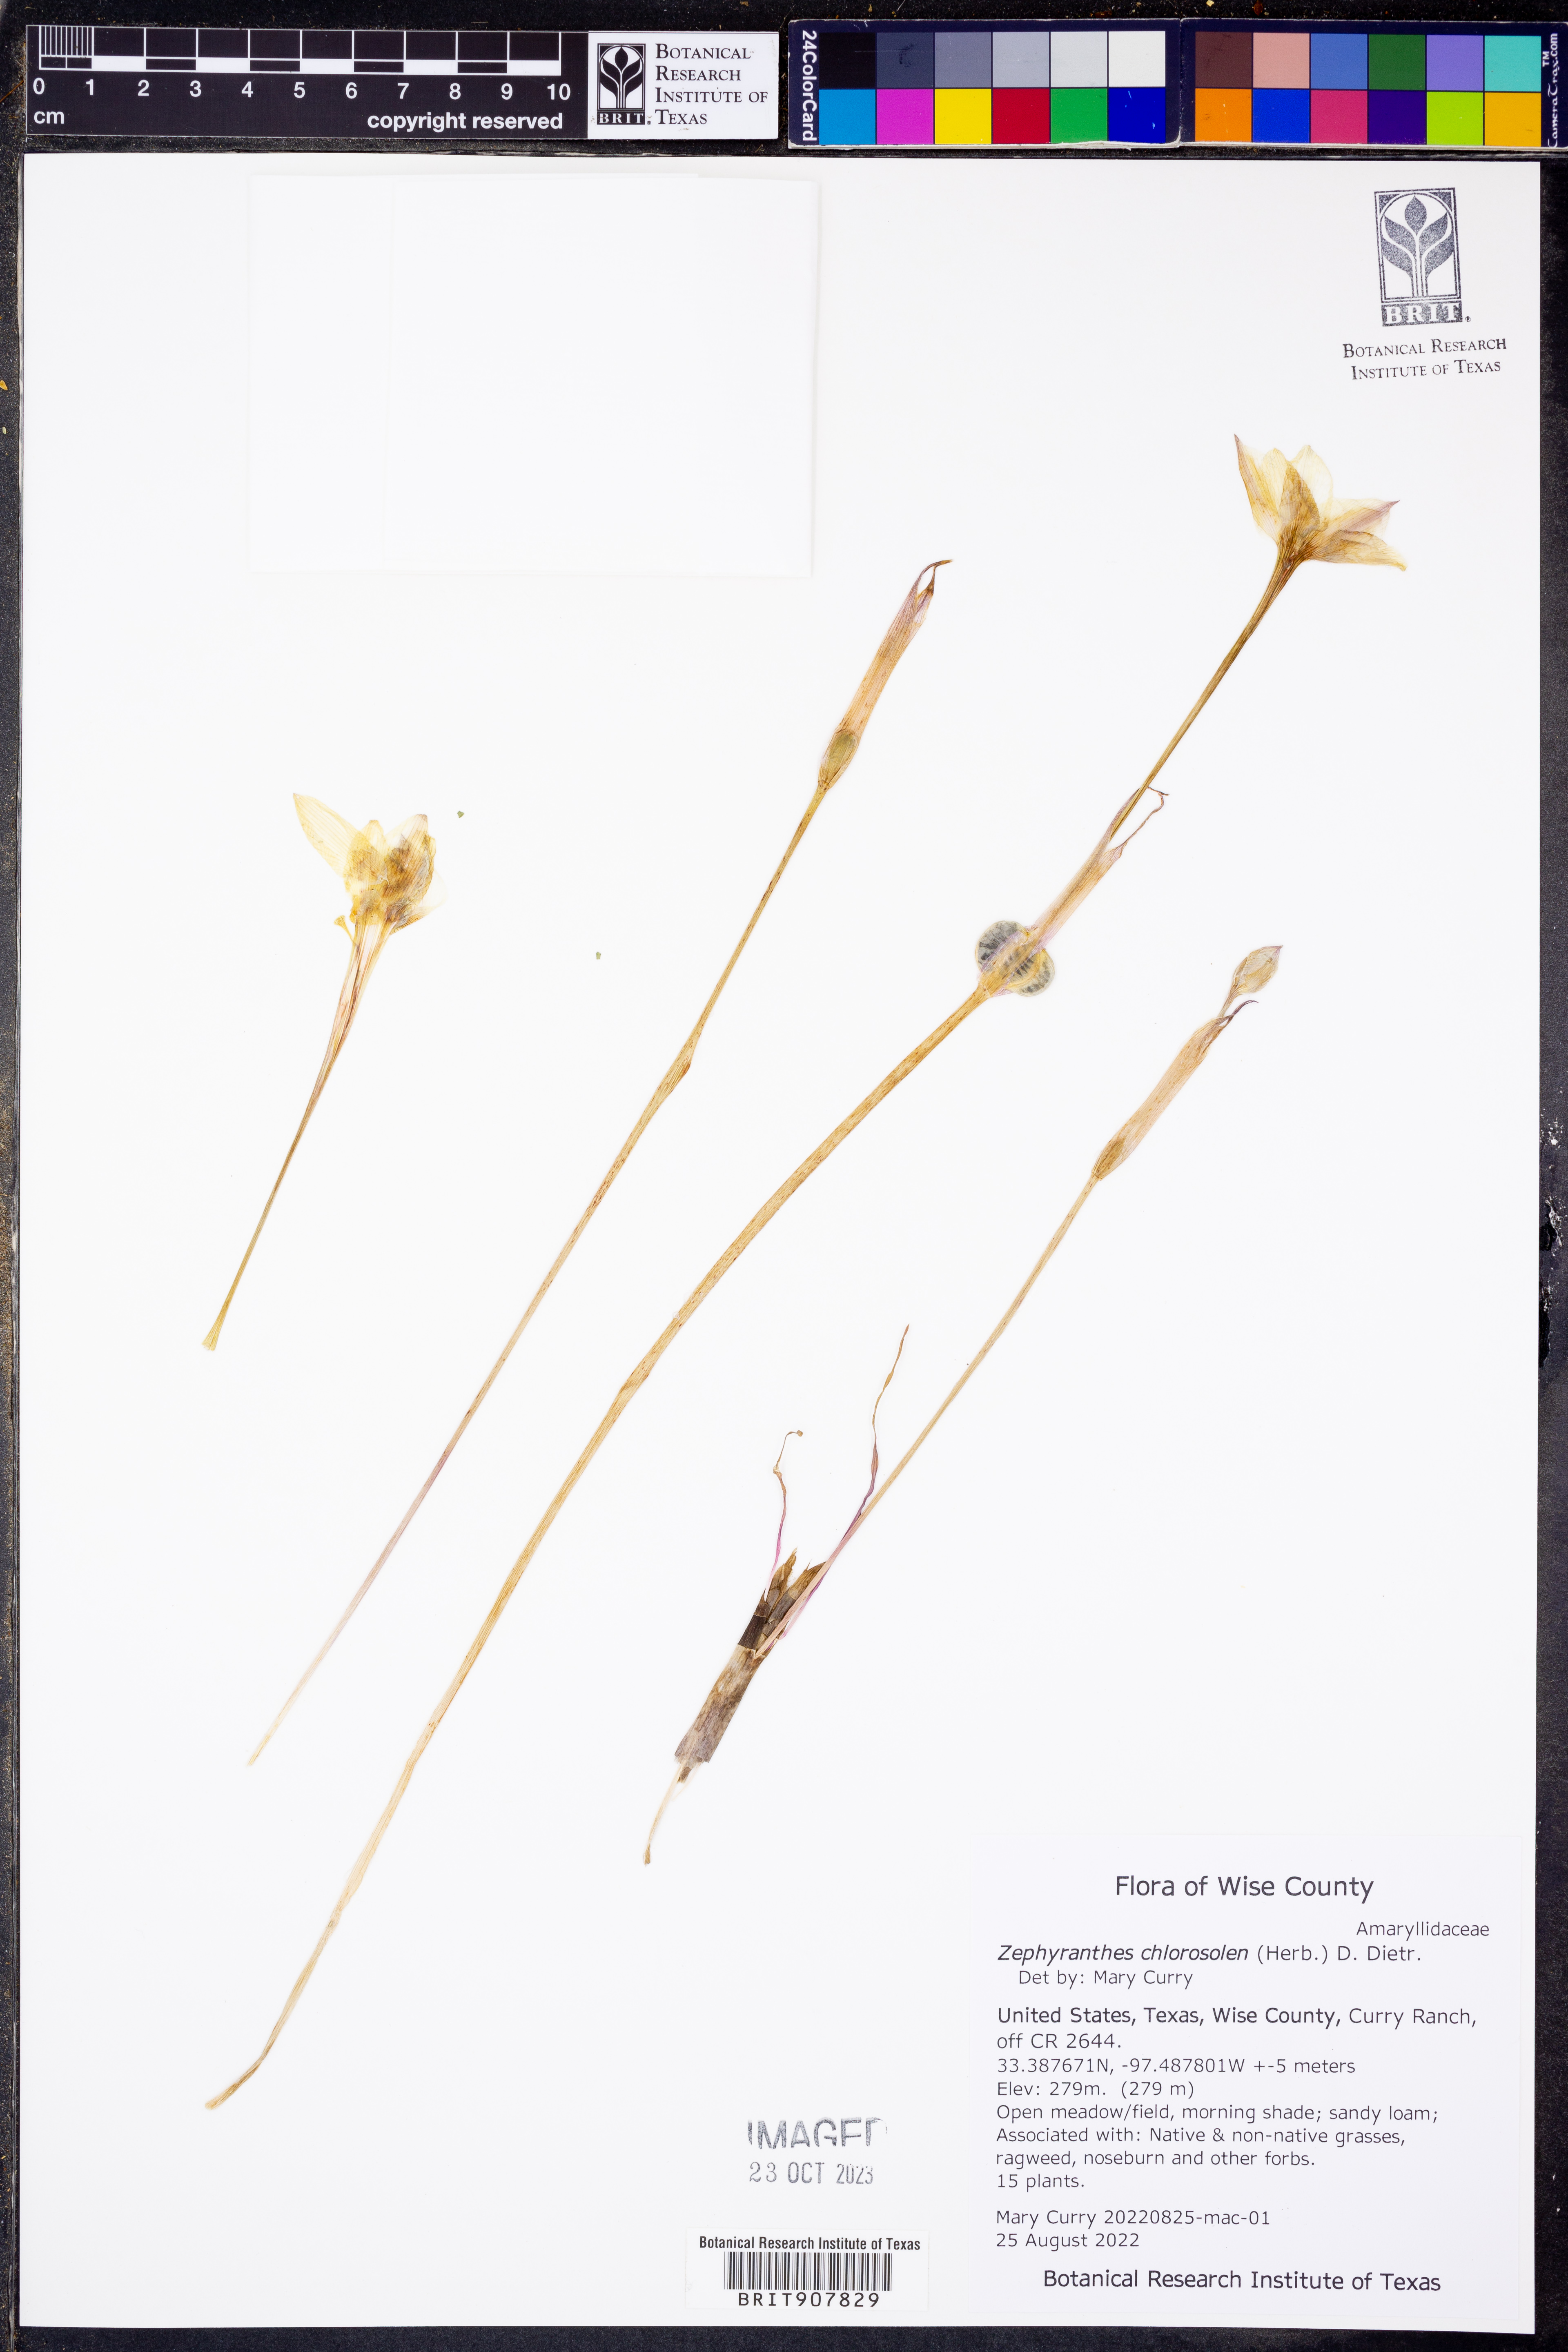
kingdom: Plantae
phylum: Tracheophyta
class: Liliopsida
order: Asparagales
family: Amaryllidaceae
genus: Zephyranthes
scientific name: Zephyranthes chlorosolen
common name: Evening rain-lily
